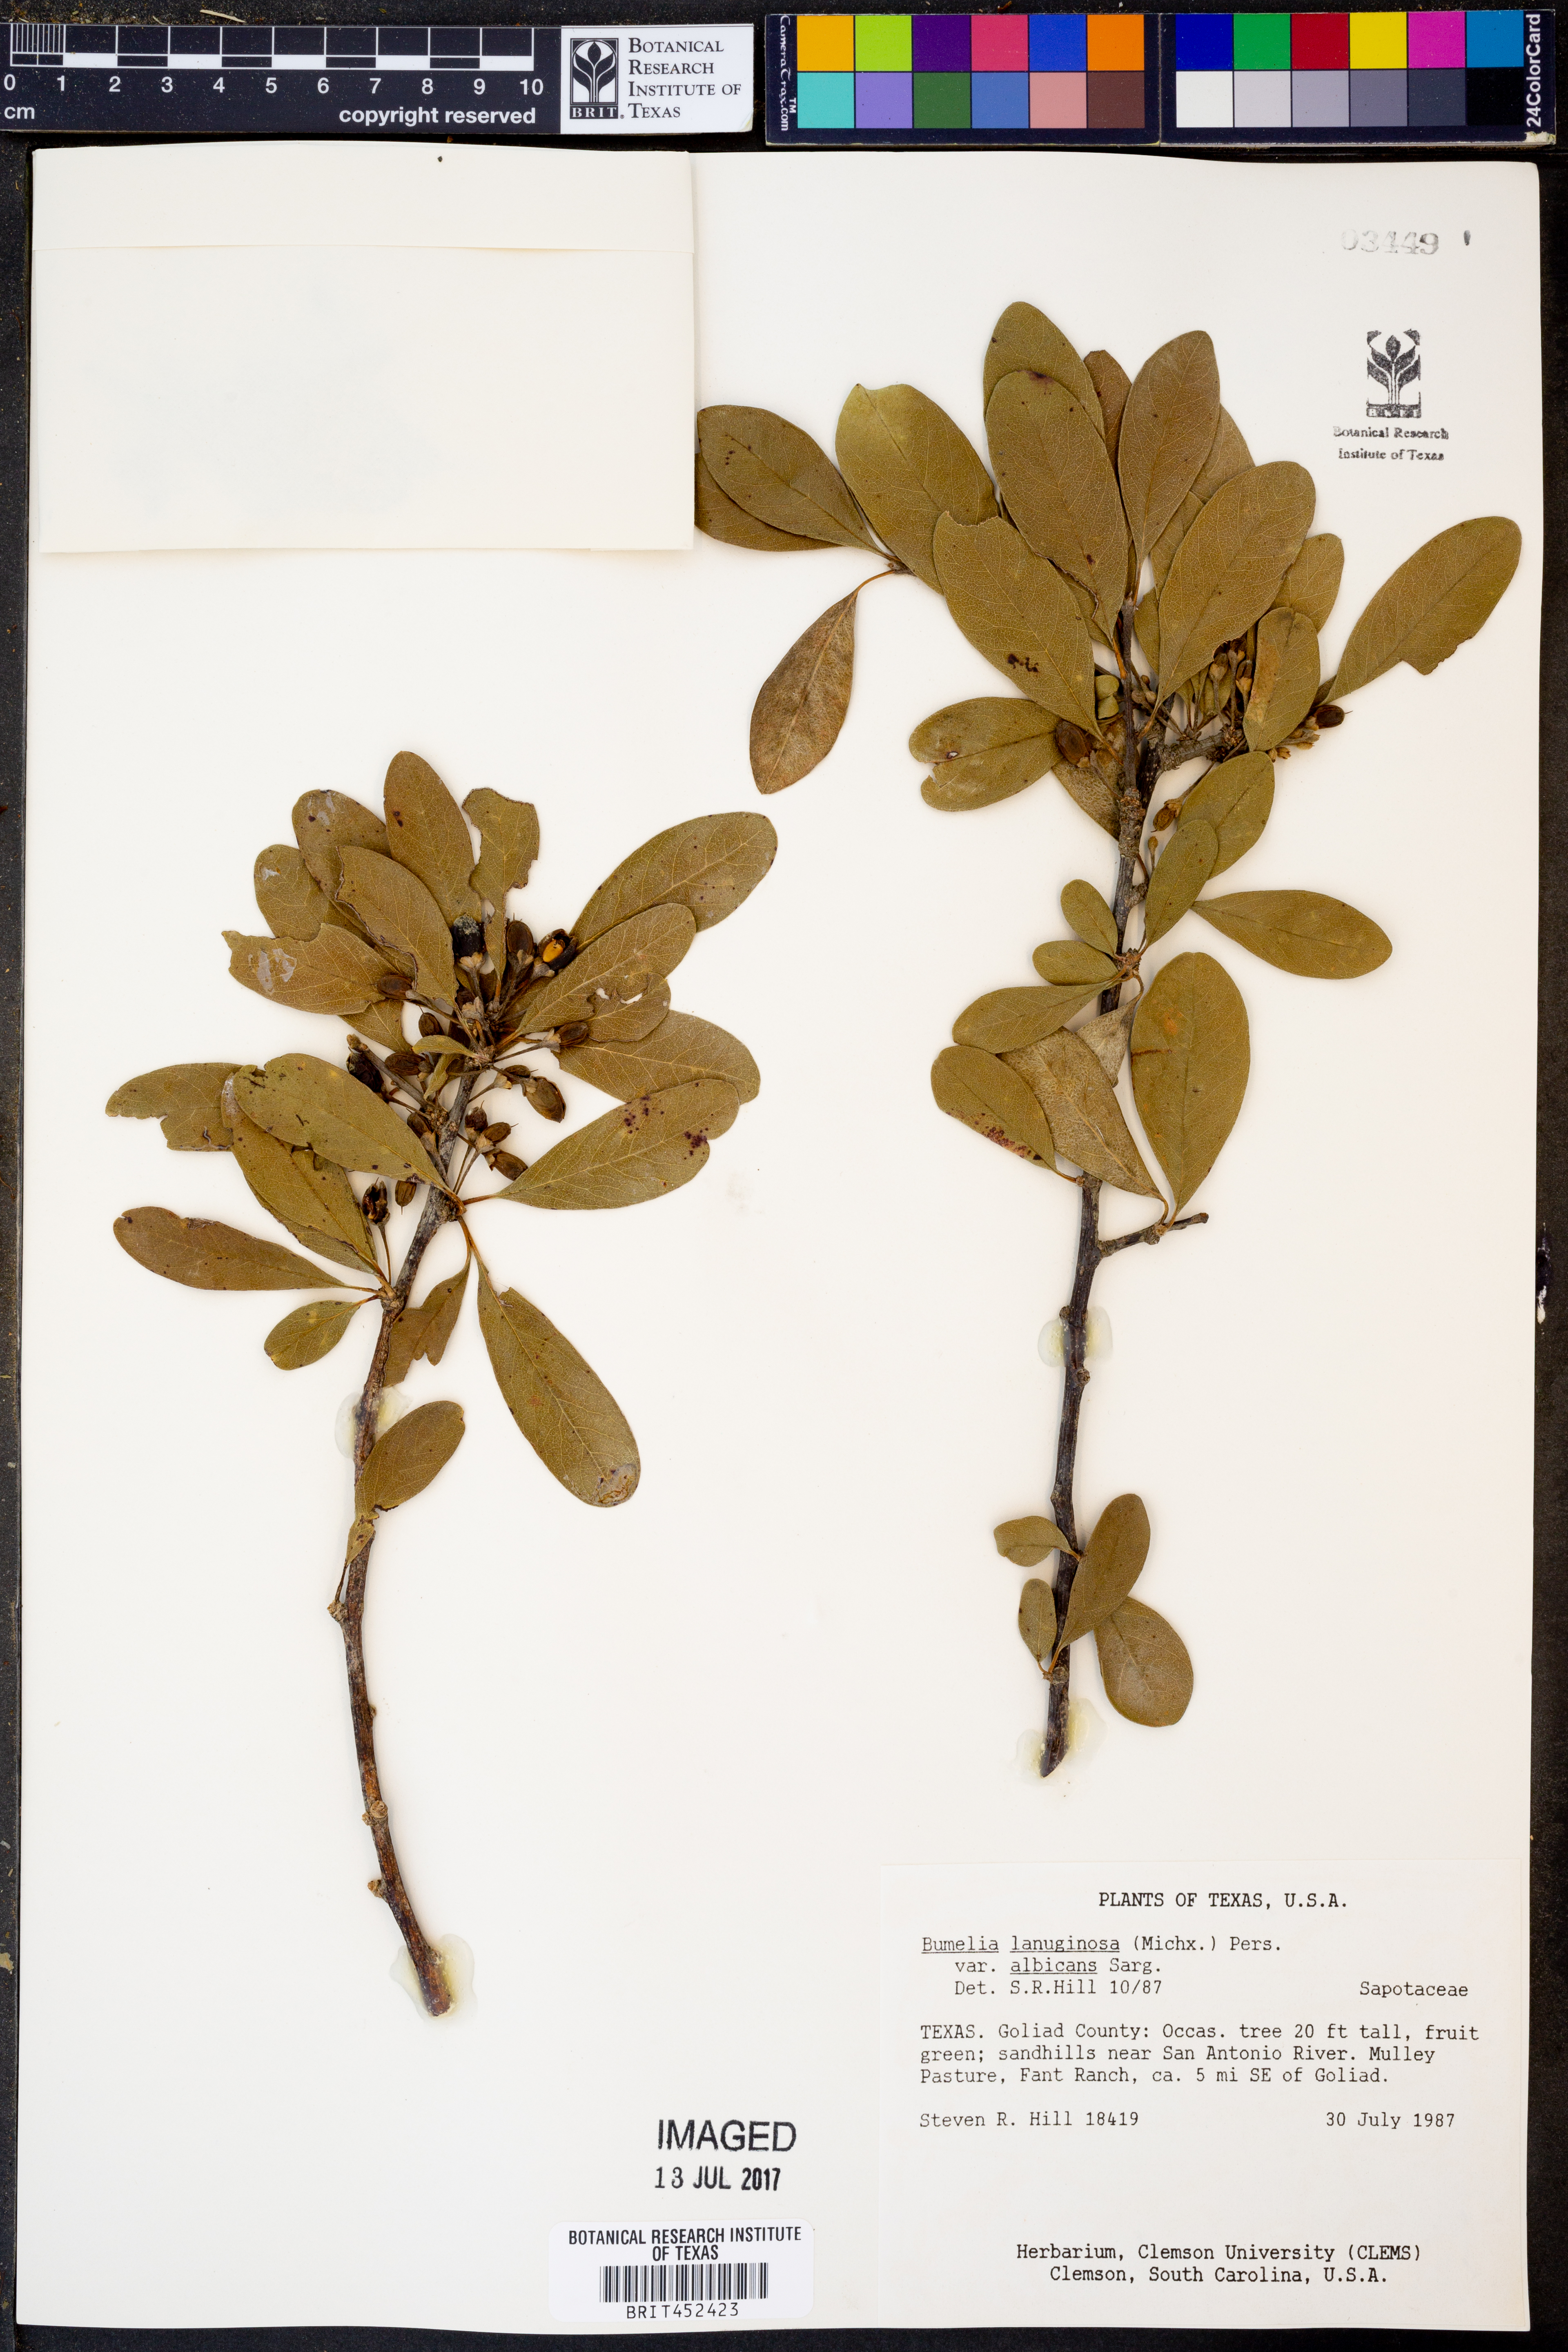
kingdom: Plantae
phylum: Tracheophyta
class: Magnoliopsida
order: Ericales
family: Sapotaceae
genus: Sideroxylon
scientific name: Sideroxylon lanuginosum
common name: Chittamwood
